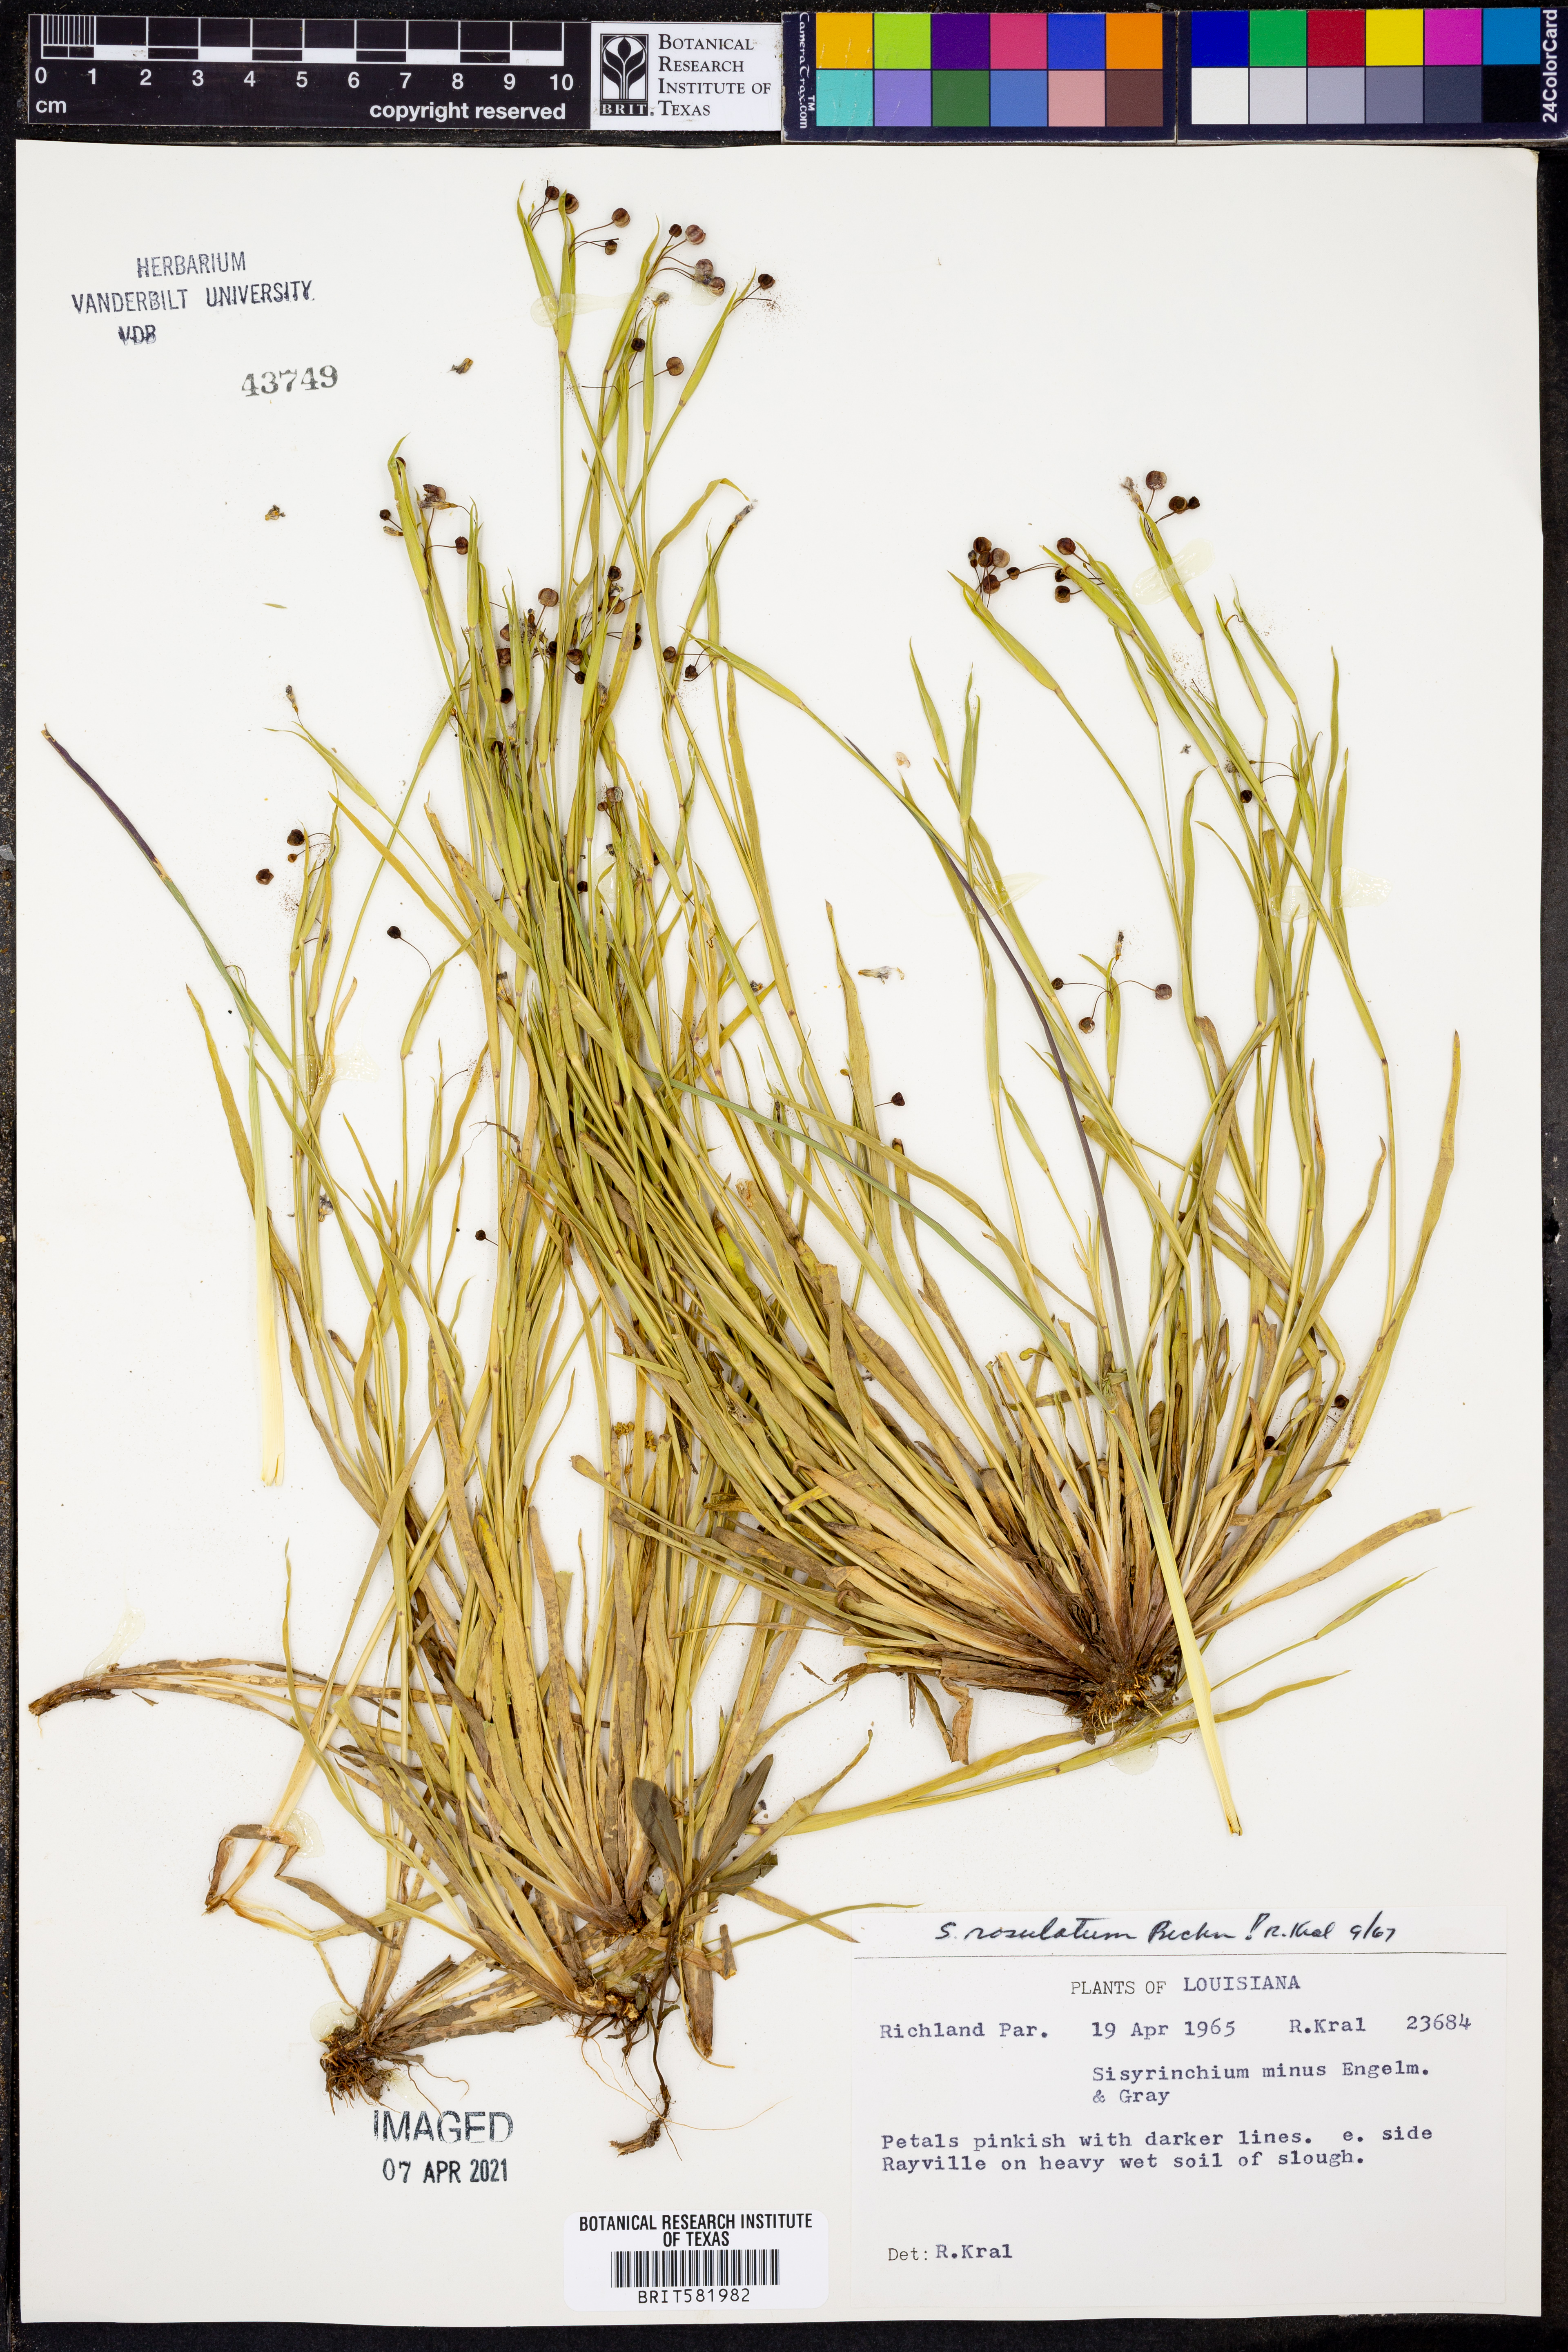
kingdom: Plantae
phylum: Tracheophyta
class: Liliopsida
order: Asparagales
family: Iridaceae
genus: Sisyrinchium
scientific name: Sisyrinchium rosulatum
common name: Annual blue-eyed grass
